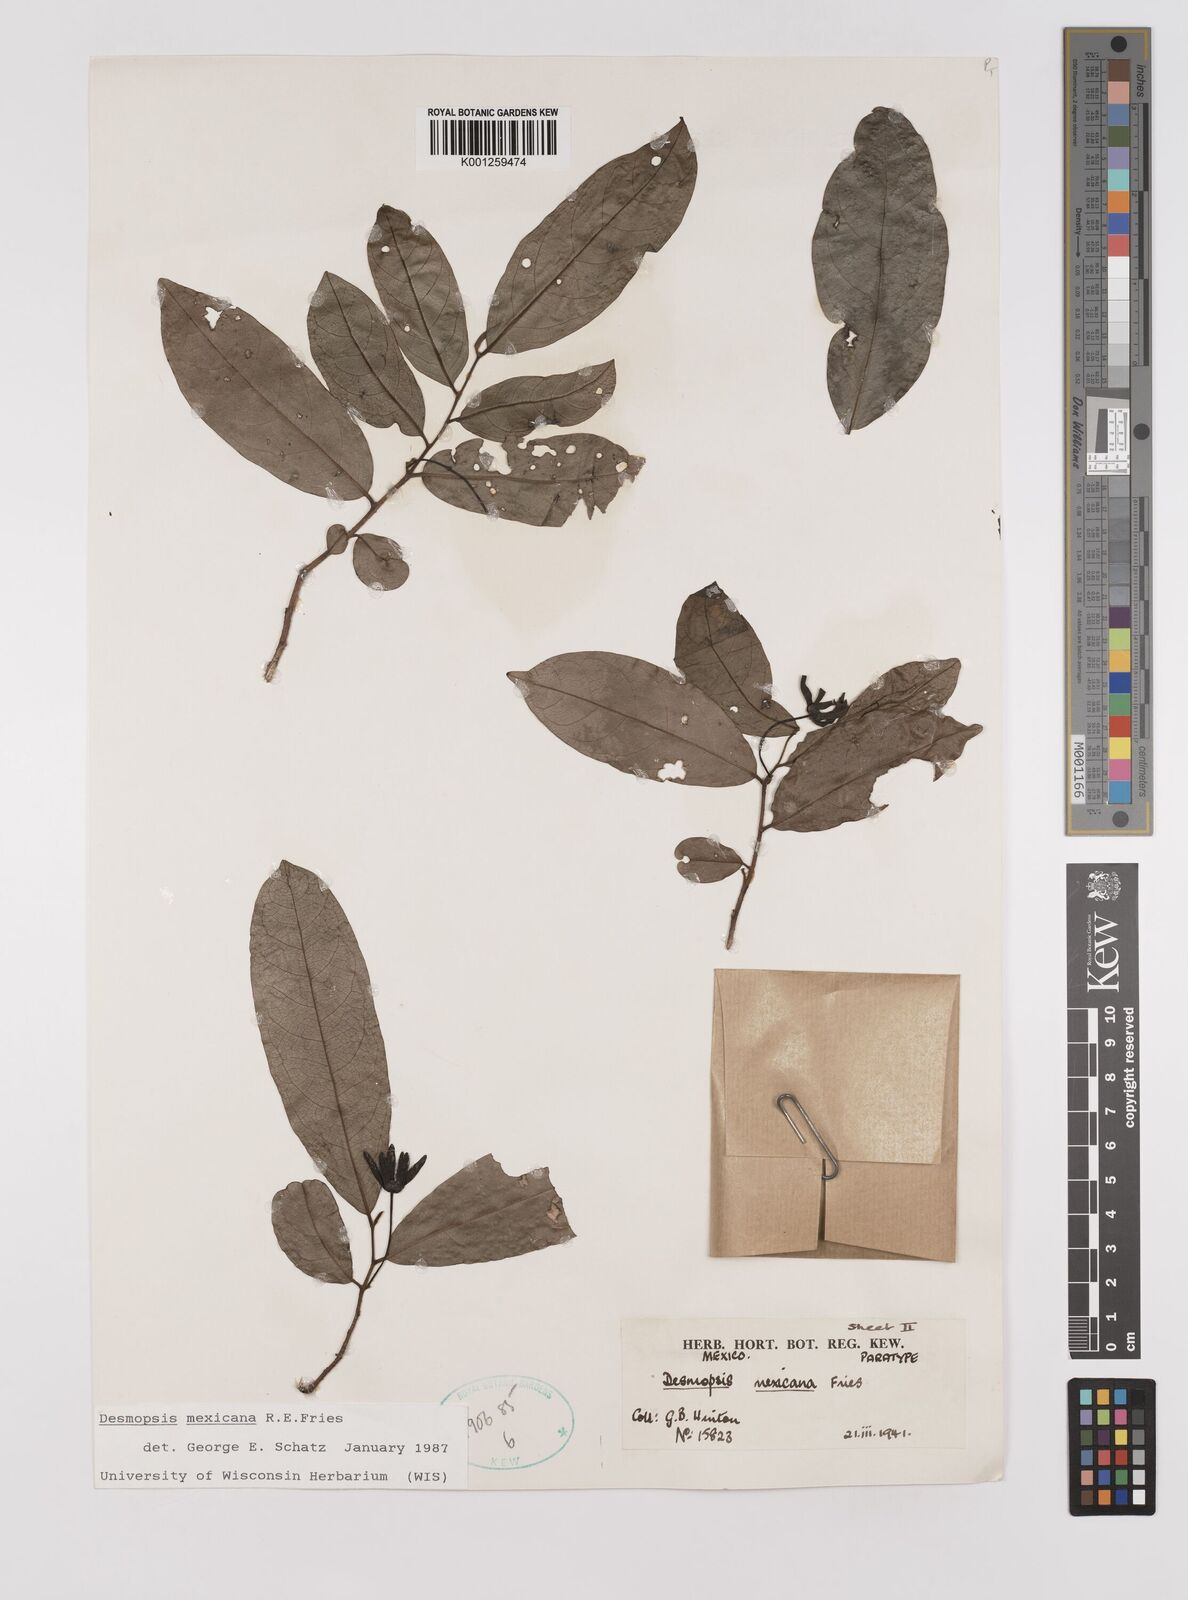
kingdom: Plantae
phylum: Tracheophyta
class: Magnoliopsida
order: Magnoliales
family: Annonaceae
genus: Desmopsis
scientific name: Desmopsis mexicana
